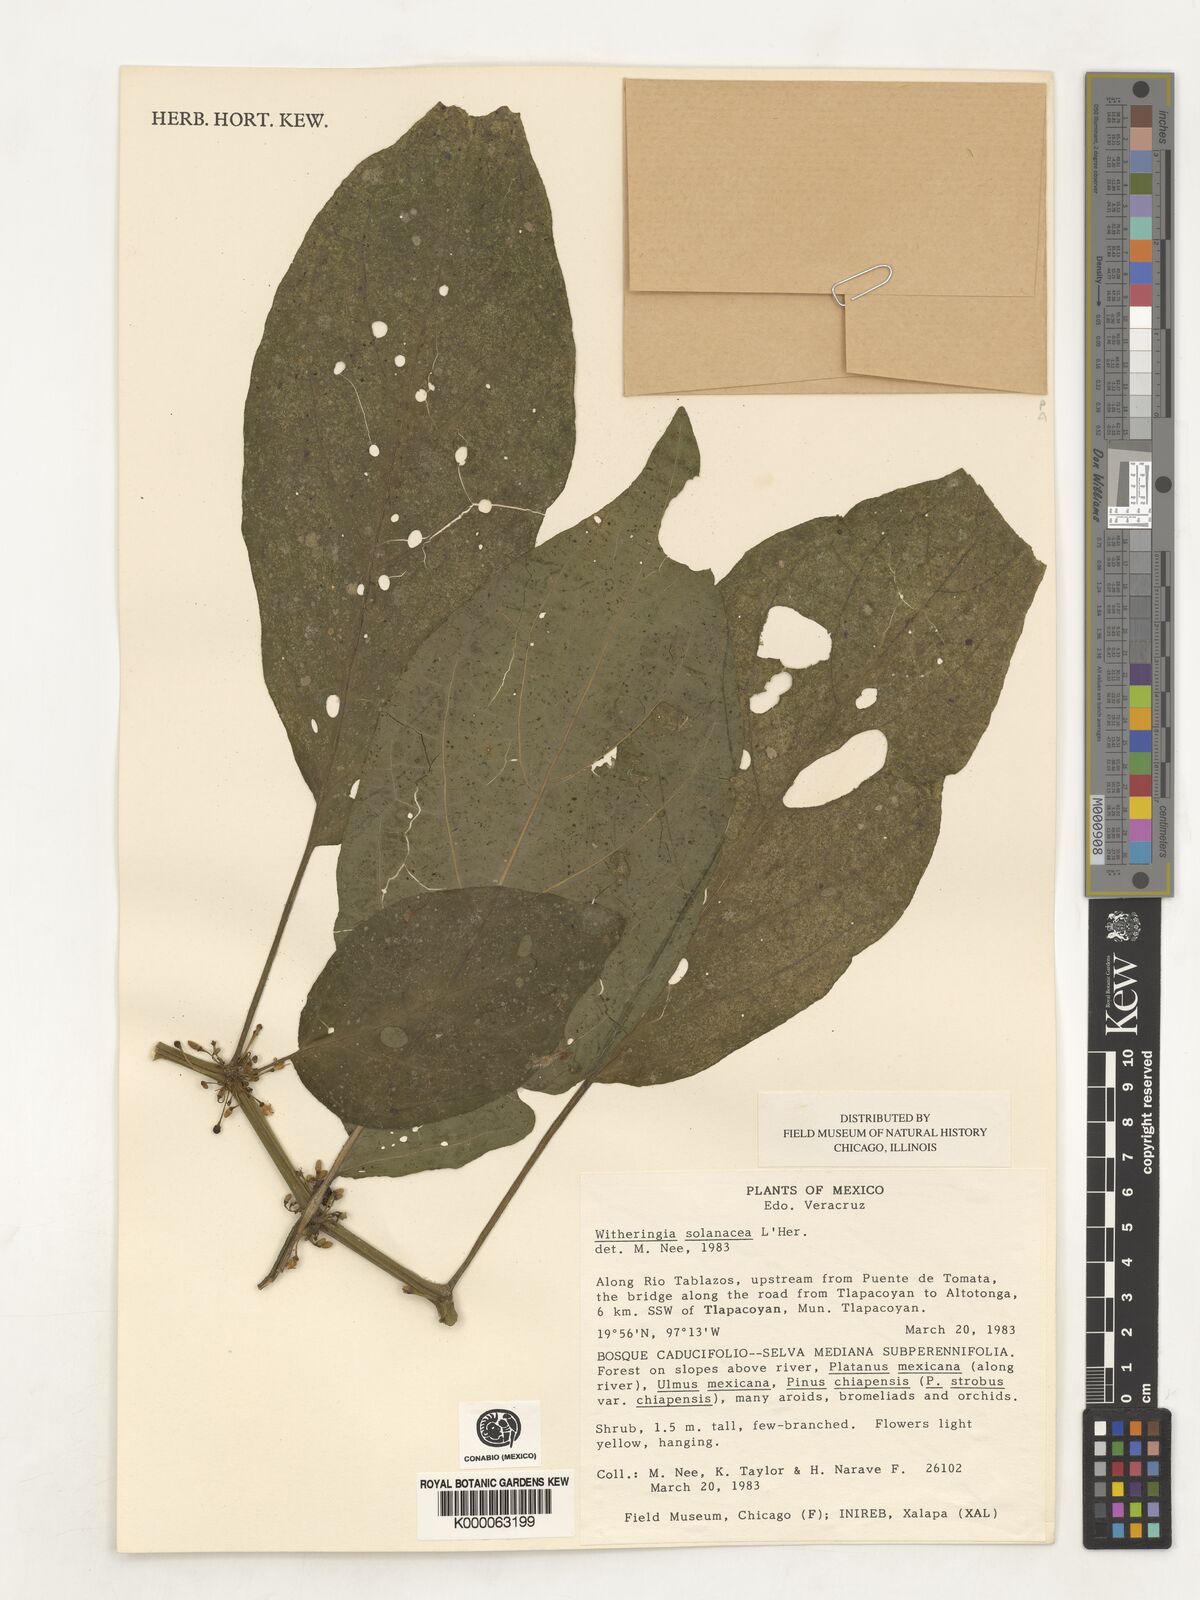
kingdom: Plantae
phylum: Tracheophyta
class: Magnoliopsida
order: Solanales
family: Solanaceae
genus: Witheringia
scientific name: Witheringia
